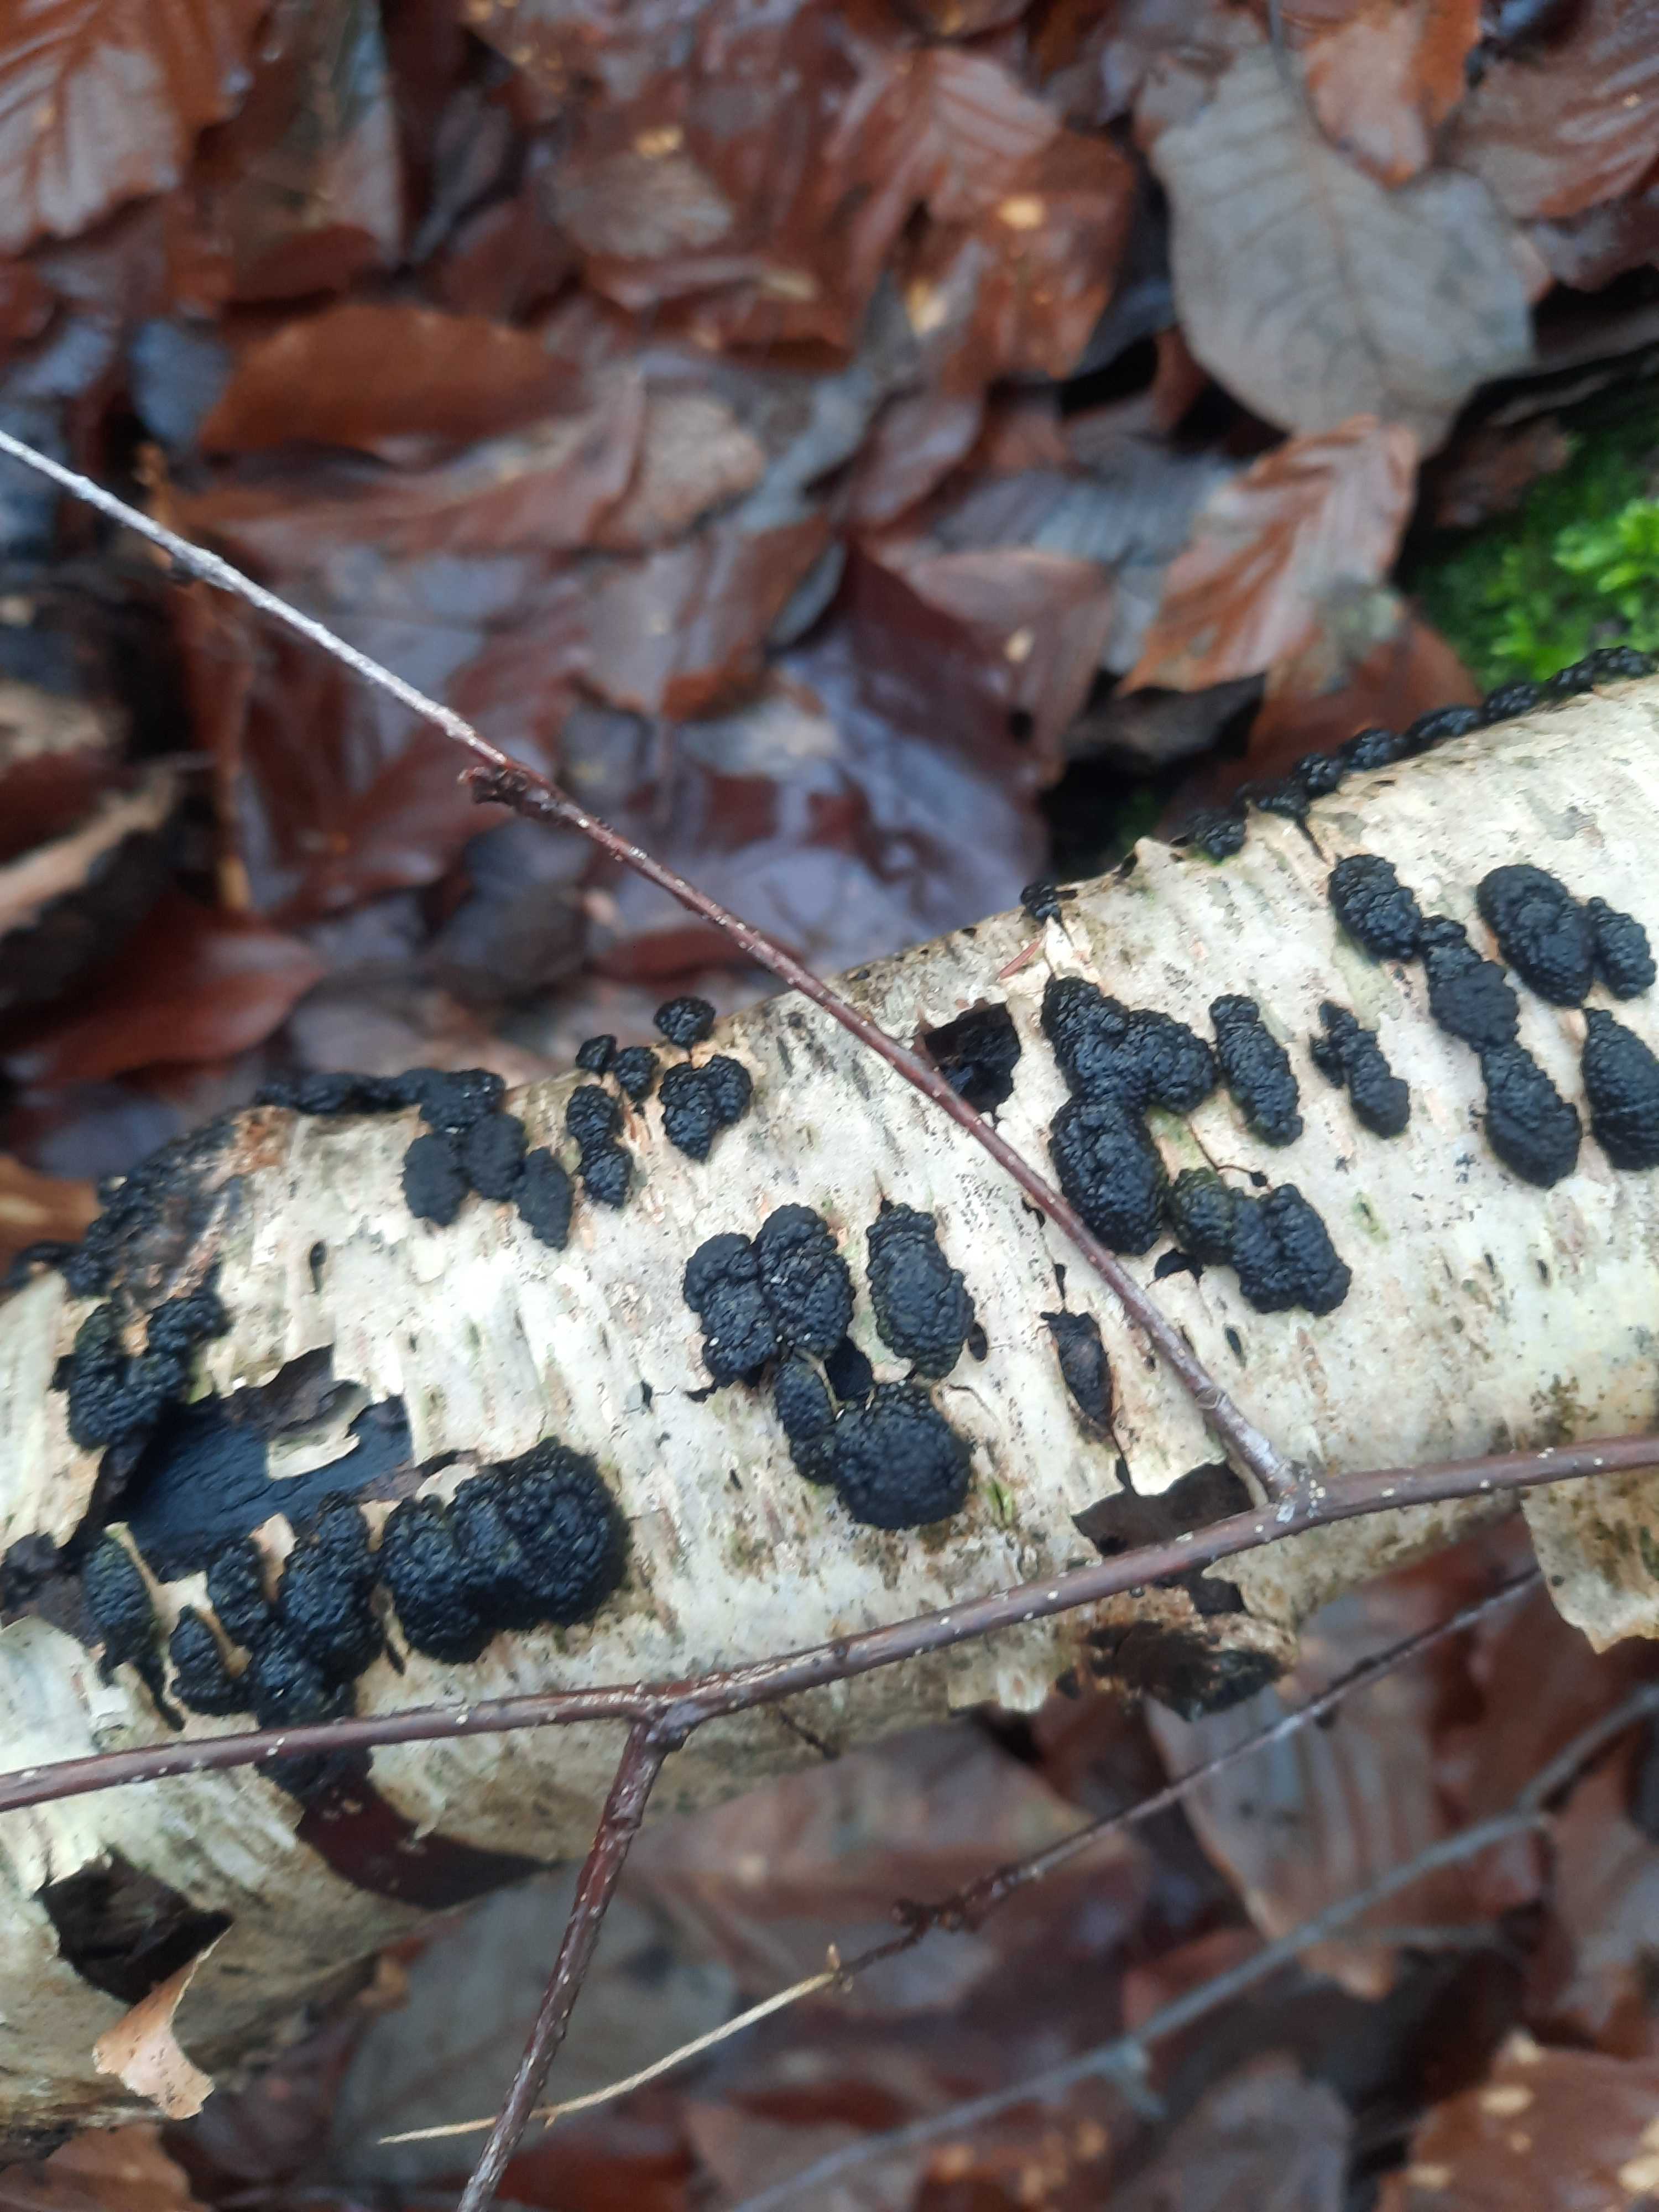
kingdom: Fungi
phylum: Ascomycota
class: Sordariomycetes
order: Xylariales
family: Hypoxylaceae
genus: Jackrogersella
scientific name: Jackrogersella multiformis
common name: foranderlig kulbær
